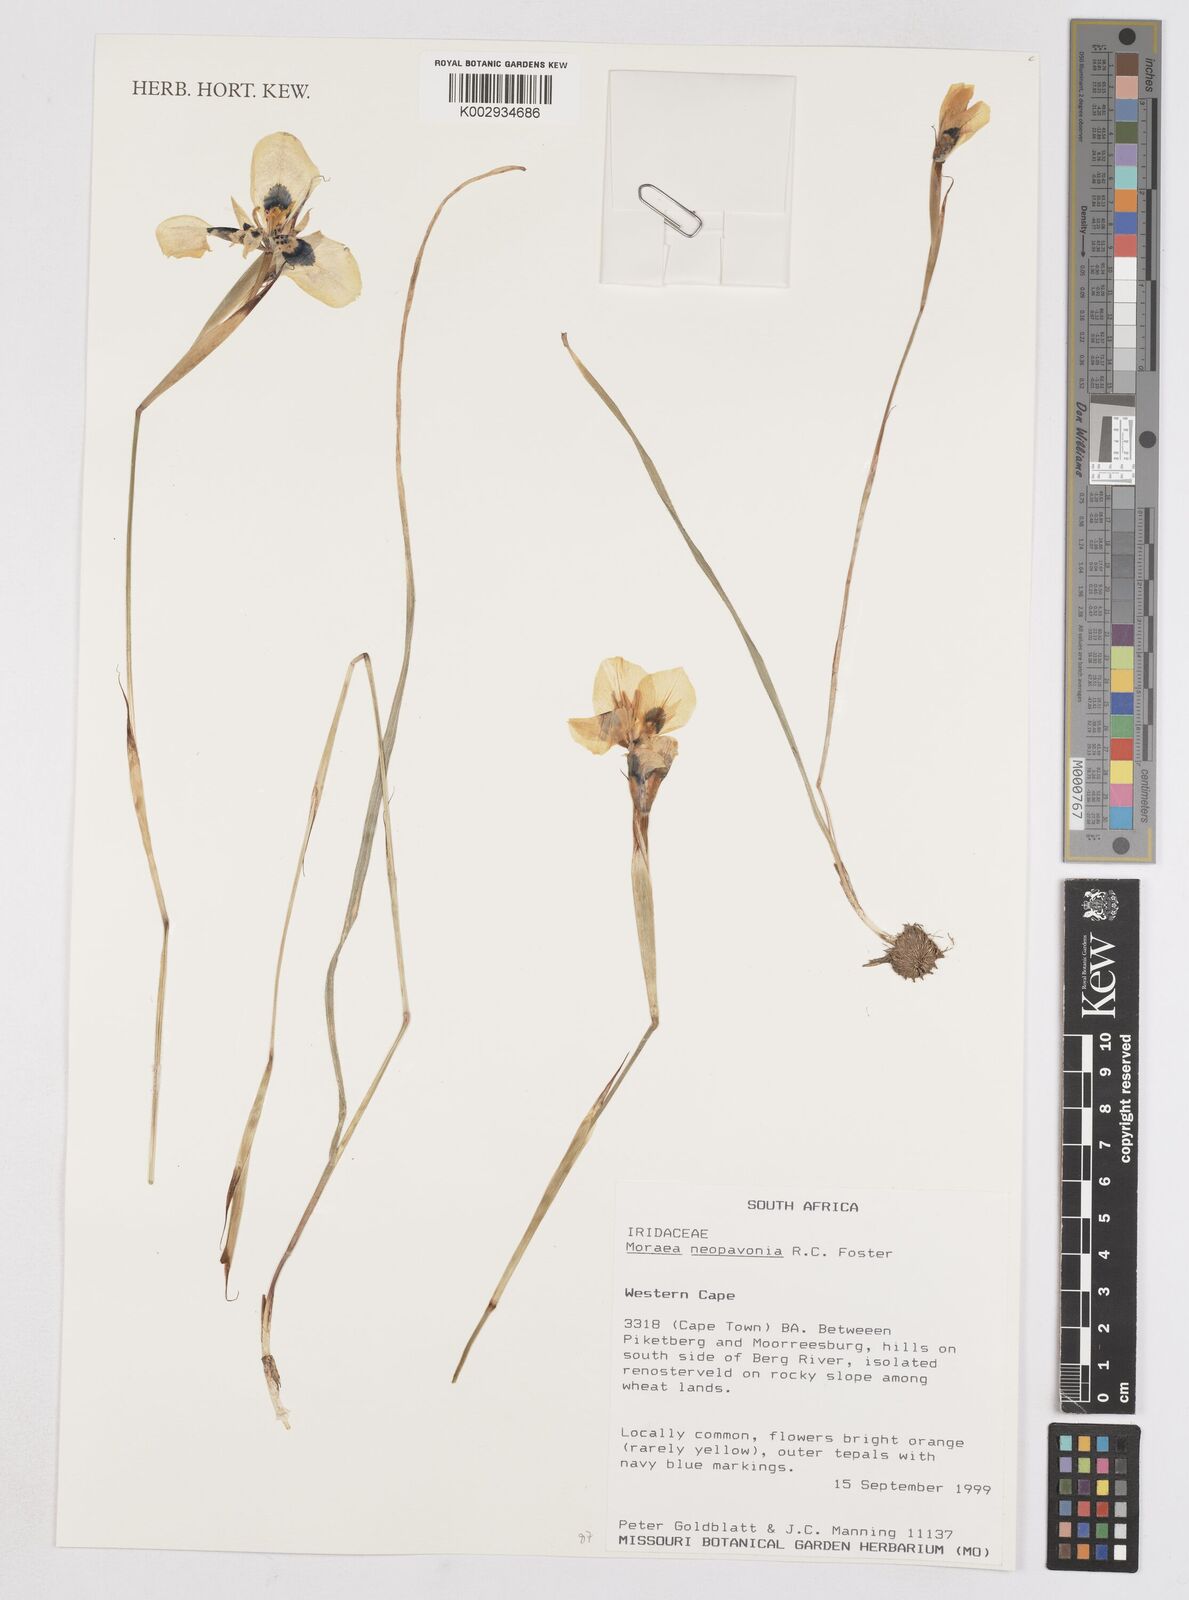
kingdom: Plantae
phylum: Tracheophyta
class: Liliopsida
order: Asparagales
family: Iridaceae
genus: Moraea
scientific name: Moraea tulbaghensis
